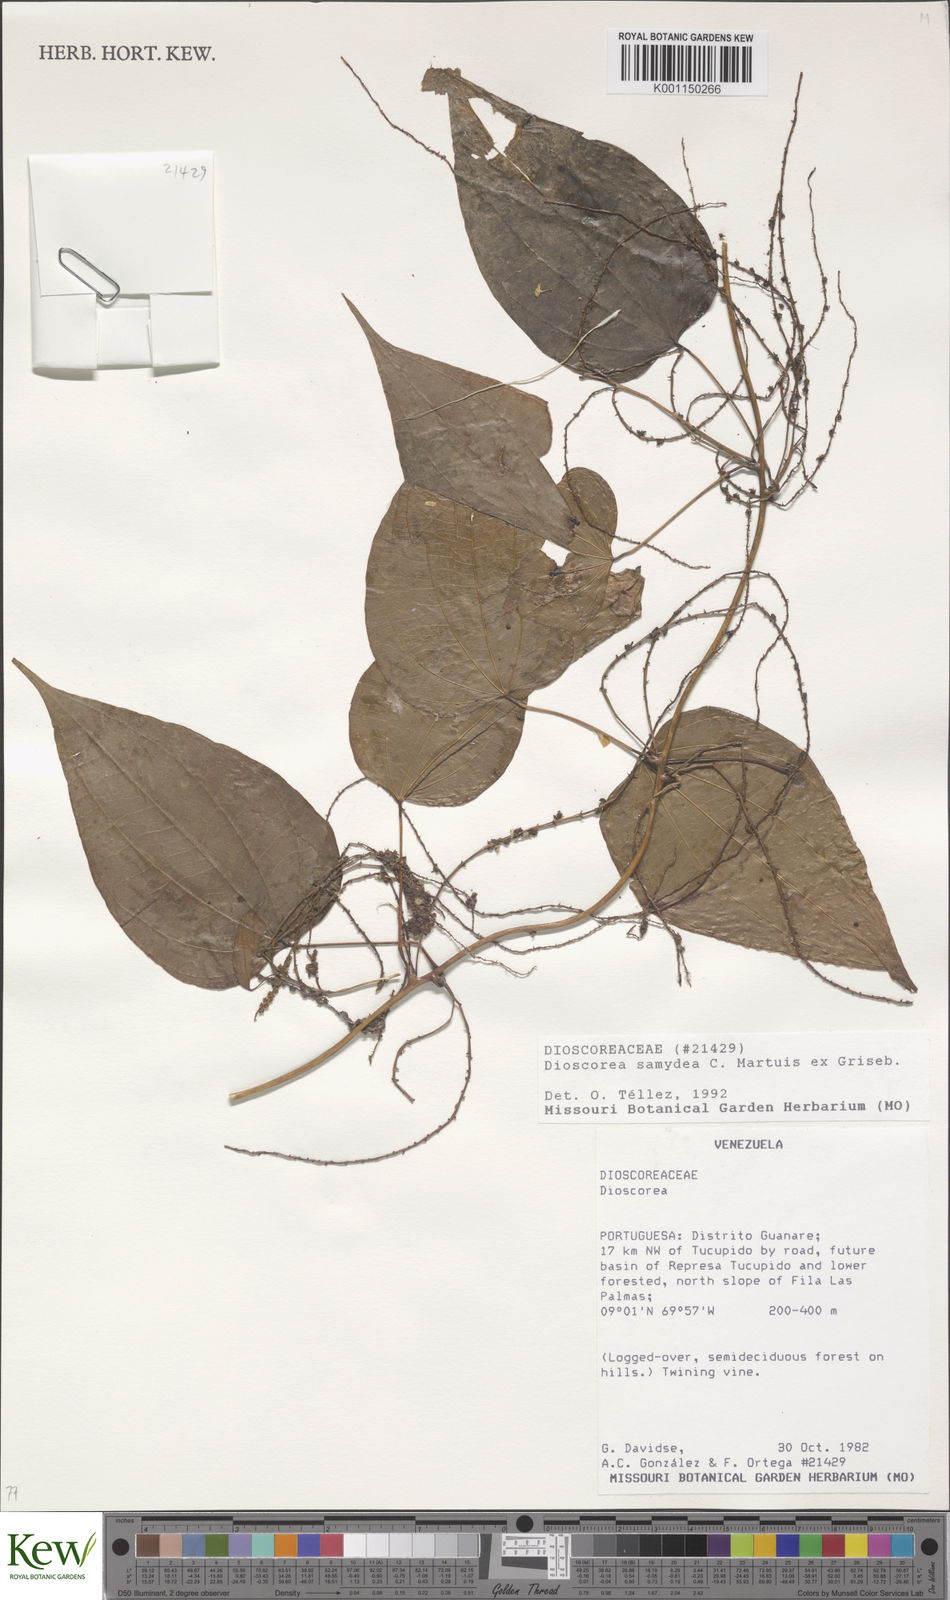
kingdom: Plantae
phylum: Tracheophyta
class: Liliopsida
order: Dioscoreales
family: Dioscoreaceae
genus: Dioscorea
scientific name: Dioscorea chondrocarpa
